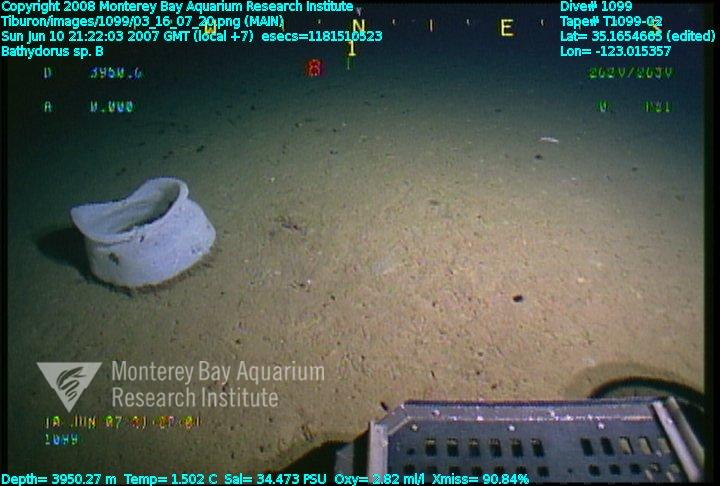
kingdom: Animalia
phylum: Porifera
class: Hexactinellida
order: Lyssacinosida
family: Rossellidae
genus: Bathydorus
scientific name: Bathydorus
